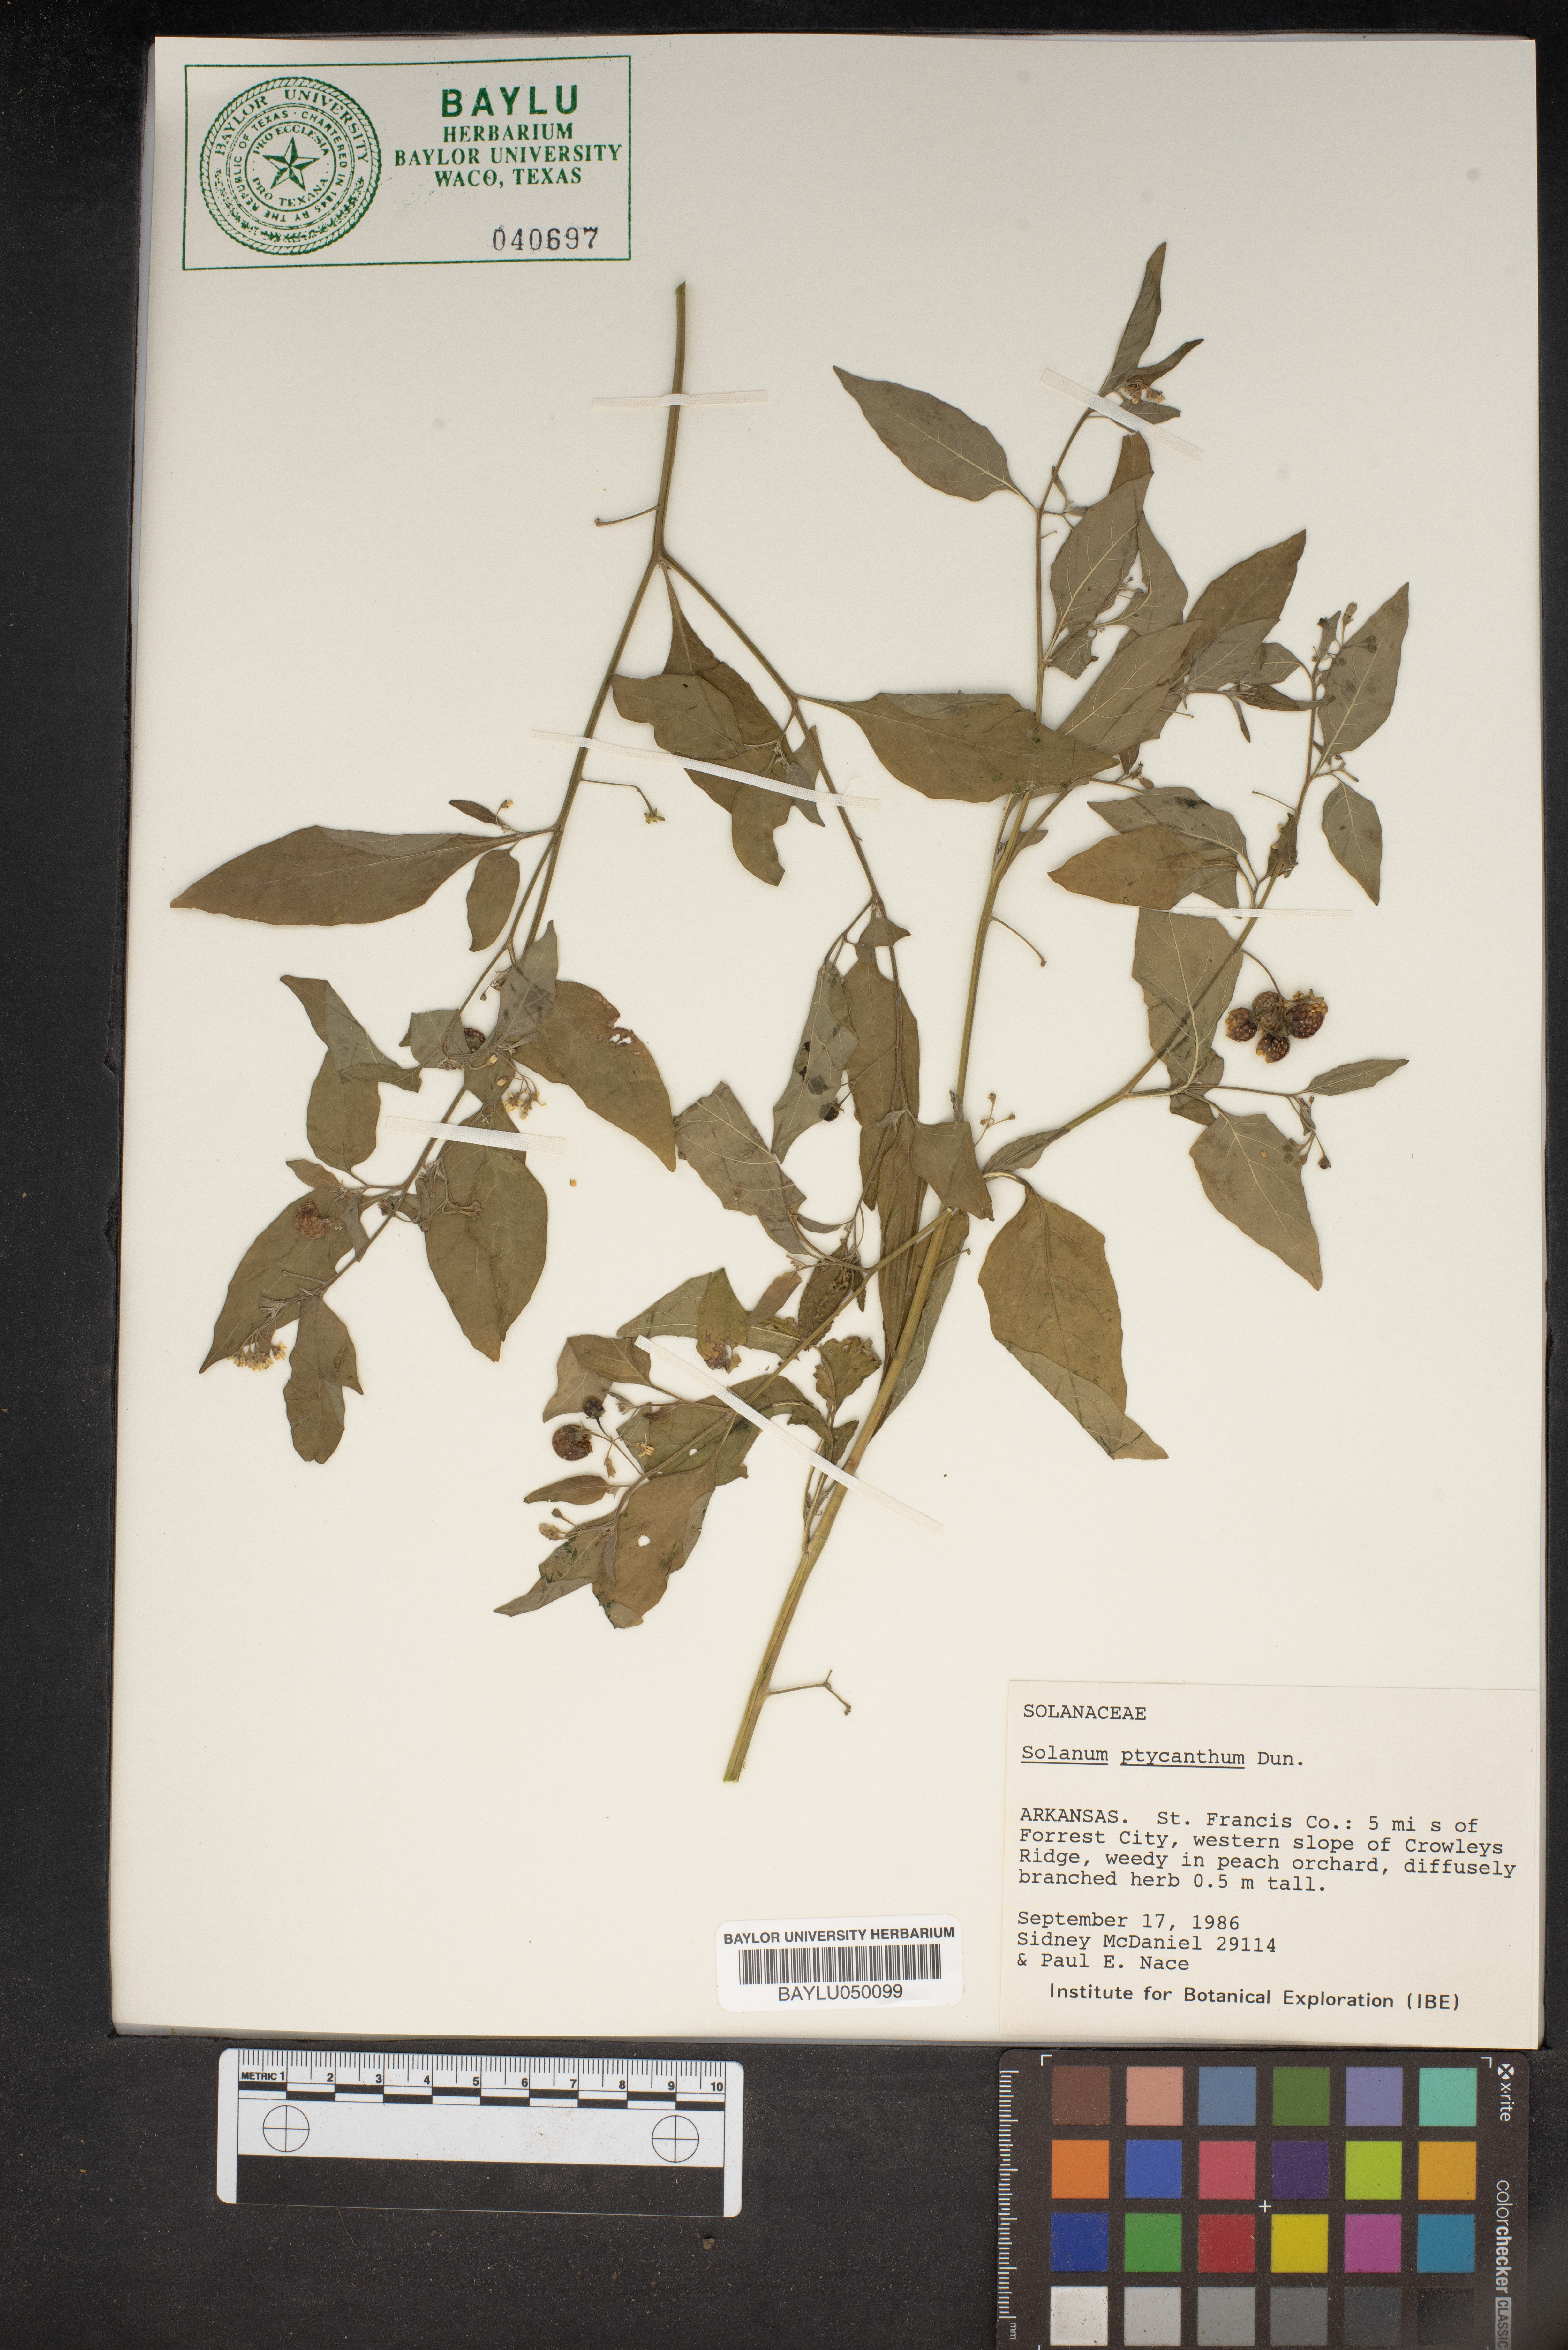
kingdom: Plantae
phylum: Tracheophyta
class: Magnoliopsida
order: Solanales
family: Solanaceae
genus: Solanum
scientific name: Solanum americanum
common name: American black nightshade
